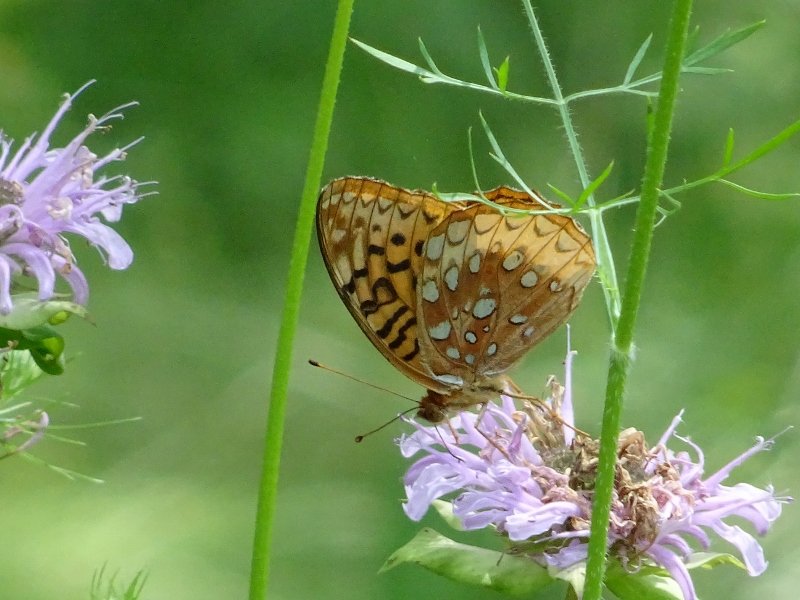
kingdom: Animalia
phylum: Arthropoda
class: Insecta
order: Lepidoptera
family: Nymphalidae
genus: Speyeria
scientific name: Speyeria cybele
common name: Great Spangled Fritillary
